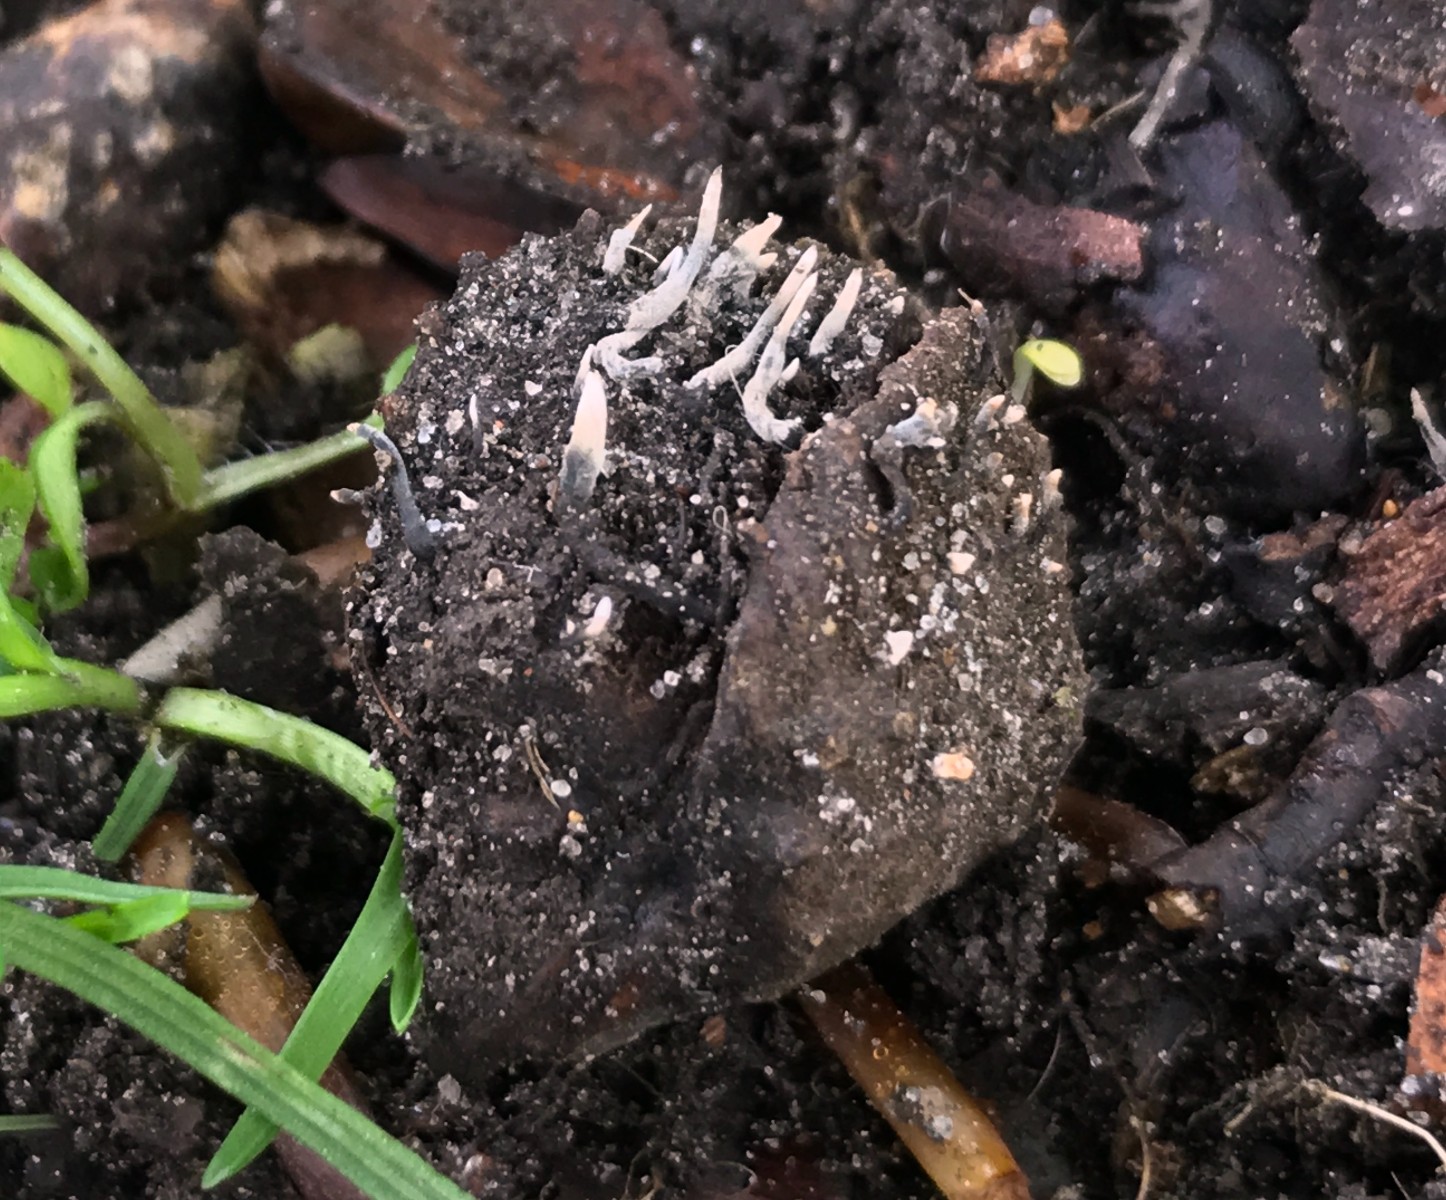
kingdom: Fungi
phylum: Ascomycota
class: Sordariomycetes
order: Xylariales
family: Xylariaceae
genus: Xylaria
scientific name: Xylaria carpophila
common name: bogskål-stødsvamp
